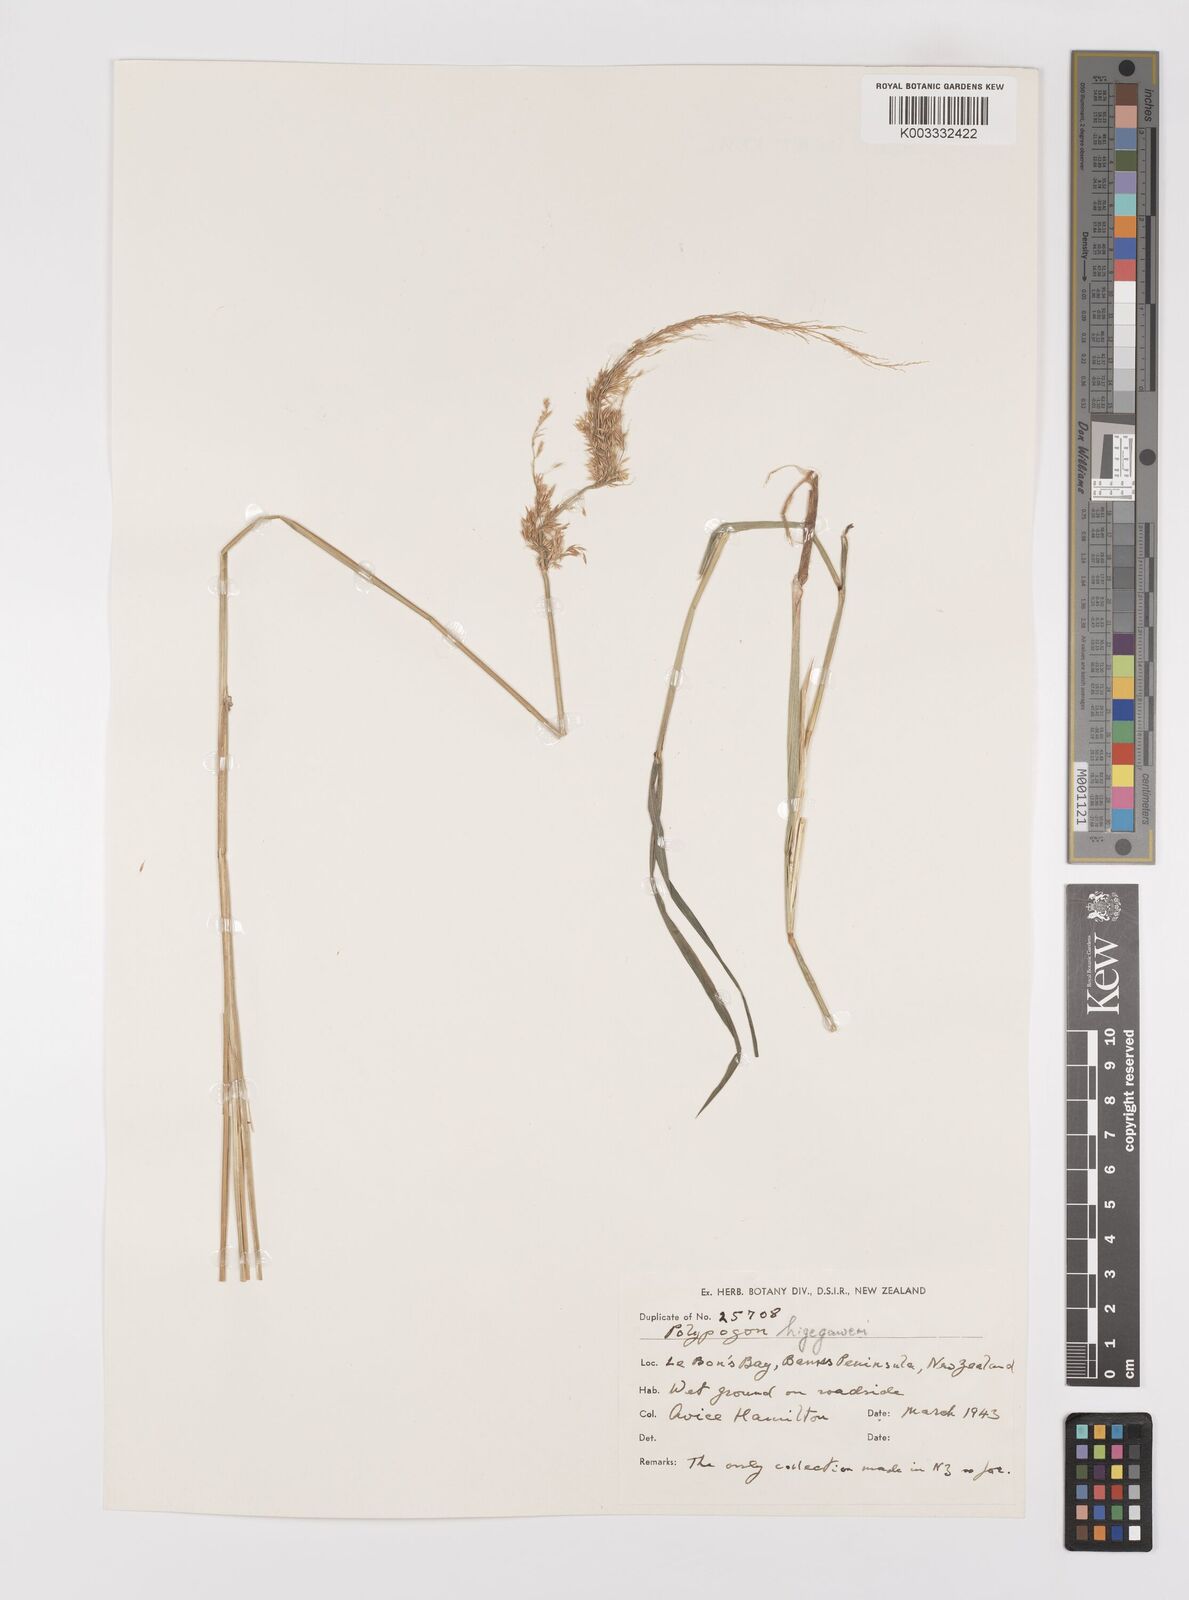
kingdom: Plantae
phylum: Tracheophyta
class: Liliopsida
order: Poales
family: Poaceae
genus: Polypogon
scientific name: Polypogon fugax
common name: Asia minor bluegrass
